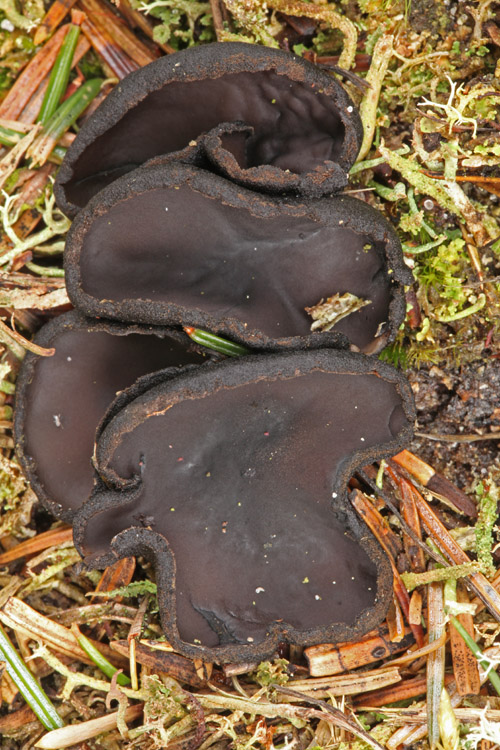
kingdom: Fungi
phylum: Ascomycota
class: Pezizomycetes
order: Pezizales
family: Sarcosomataceae
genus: Pseudoplectania
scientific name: Pseudoplectania nigrella
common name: almindelig sortbæger
